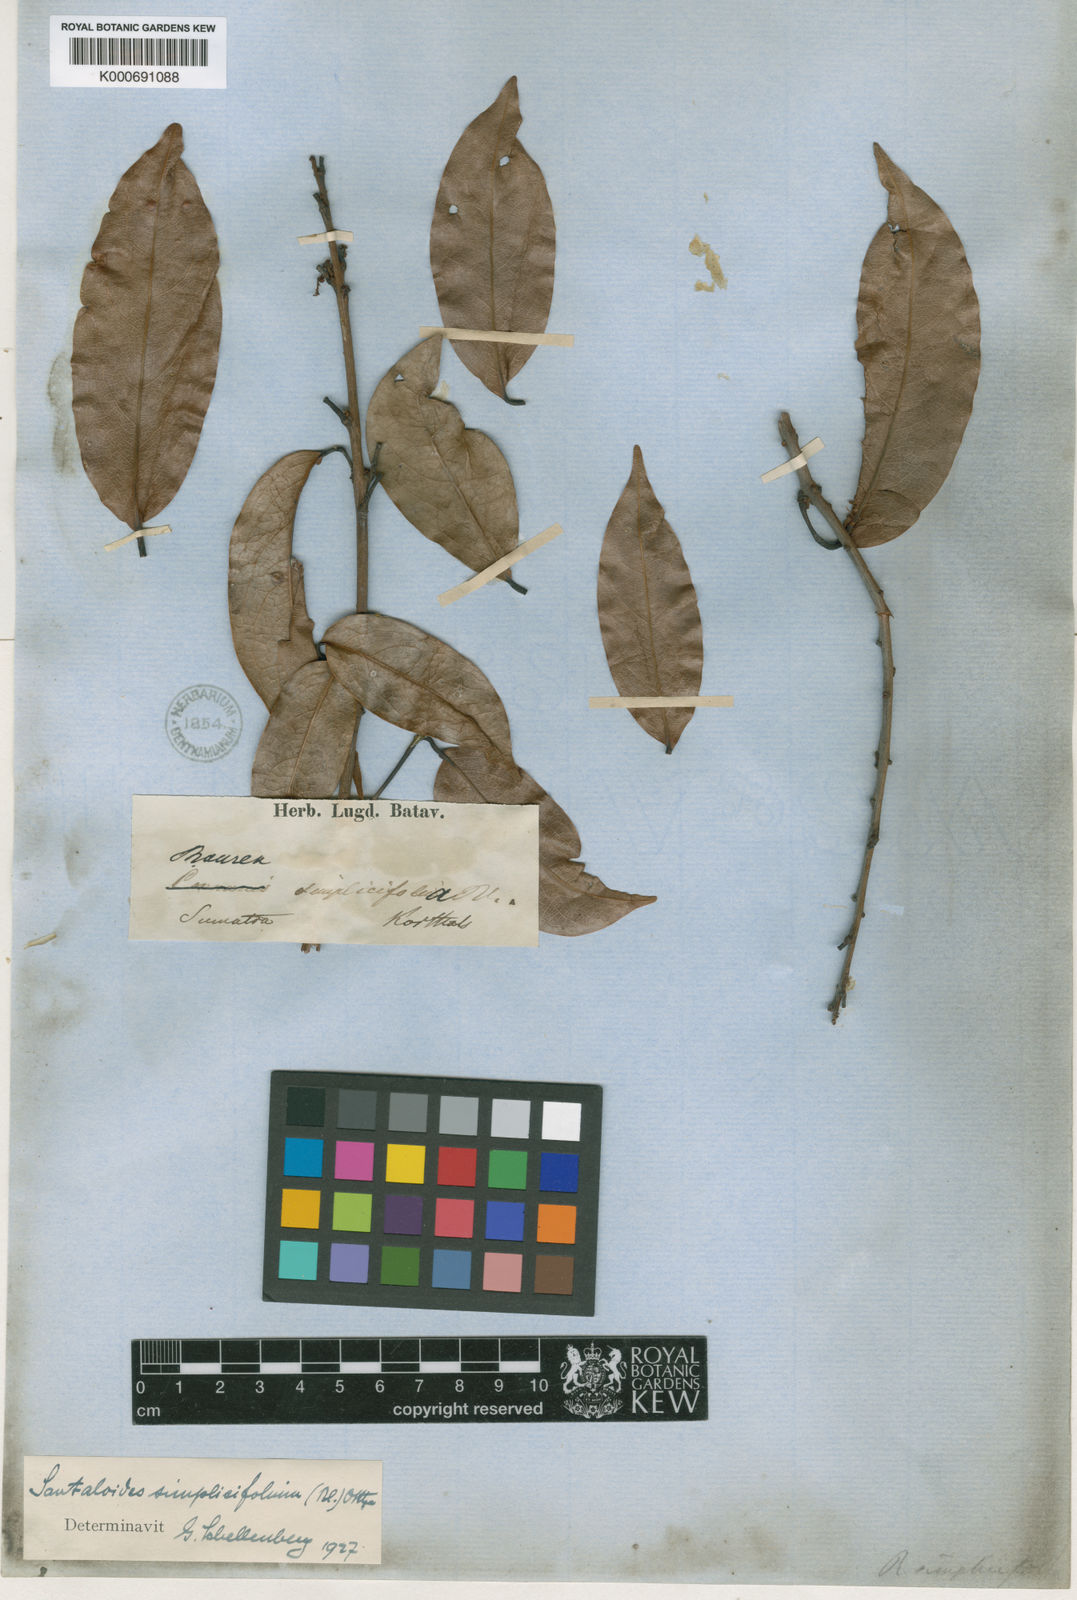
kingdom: Plantae
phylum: Tracheophyta
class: Magnoliopsida
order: Oxalidales
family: Connaraceae
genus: Rourea
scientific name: Rourea minor
